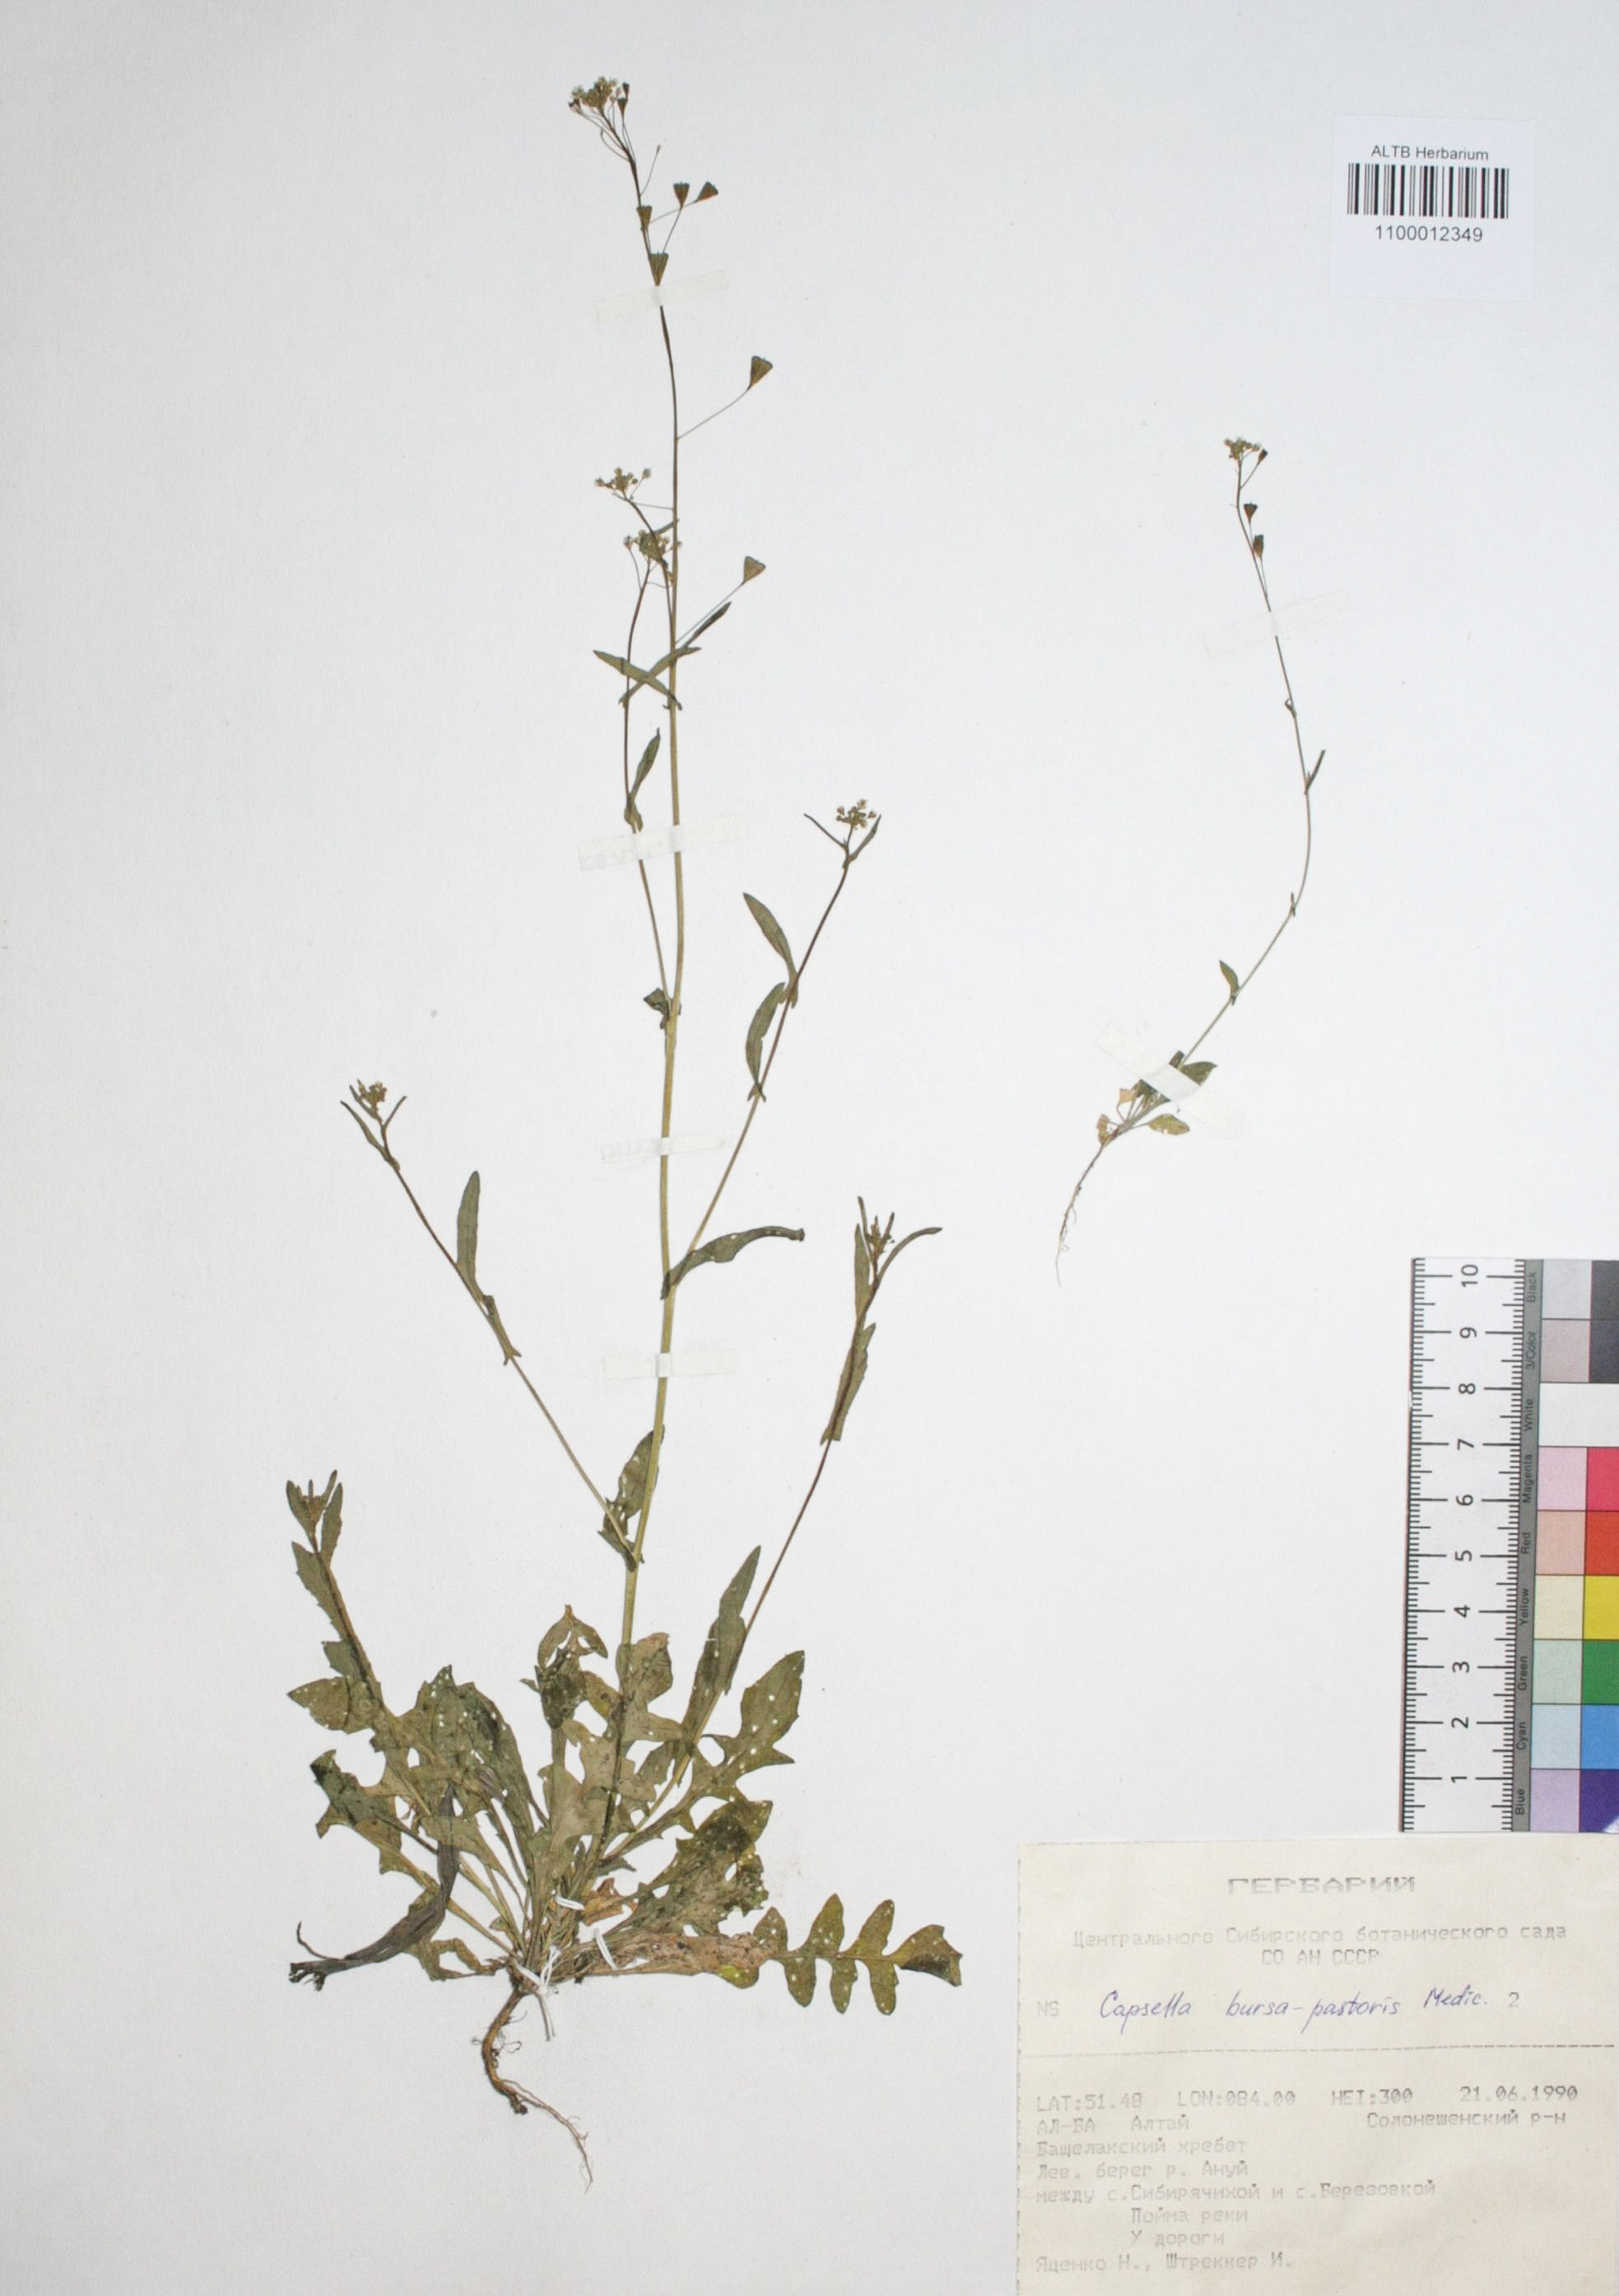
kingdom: Plantae
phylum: Tracheophyta
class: Magnoliopsida
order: Brassicales
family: Brassicaceae
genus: Capsella
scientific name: Capsella bursa-pastoris
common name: Shepherd's purse
